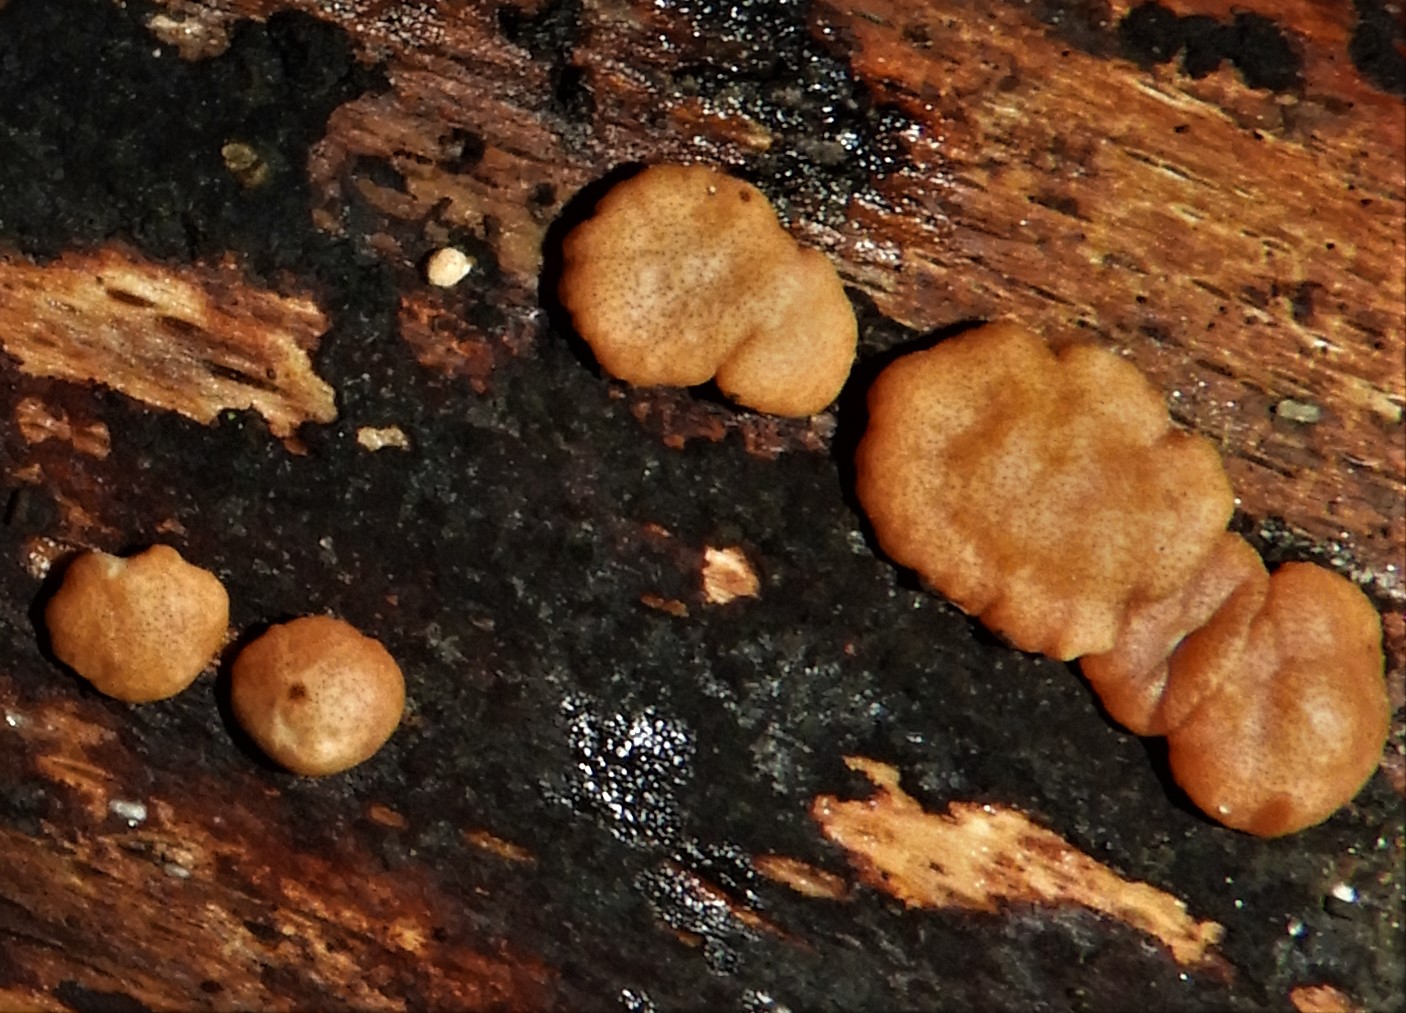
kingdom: Fungi
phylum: Ascomycota
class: Sordariomycetes
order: Hypocreales
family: Hypocreaceae
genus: Trichoderma
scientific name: Trichoderma europaeum
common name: rosabrun kødkerne
